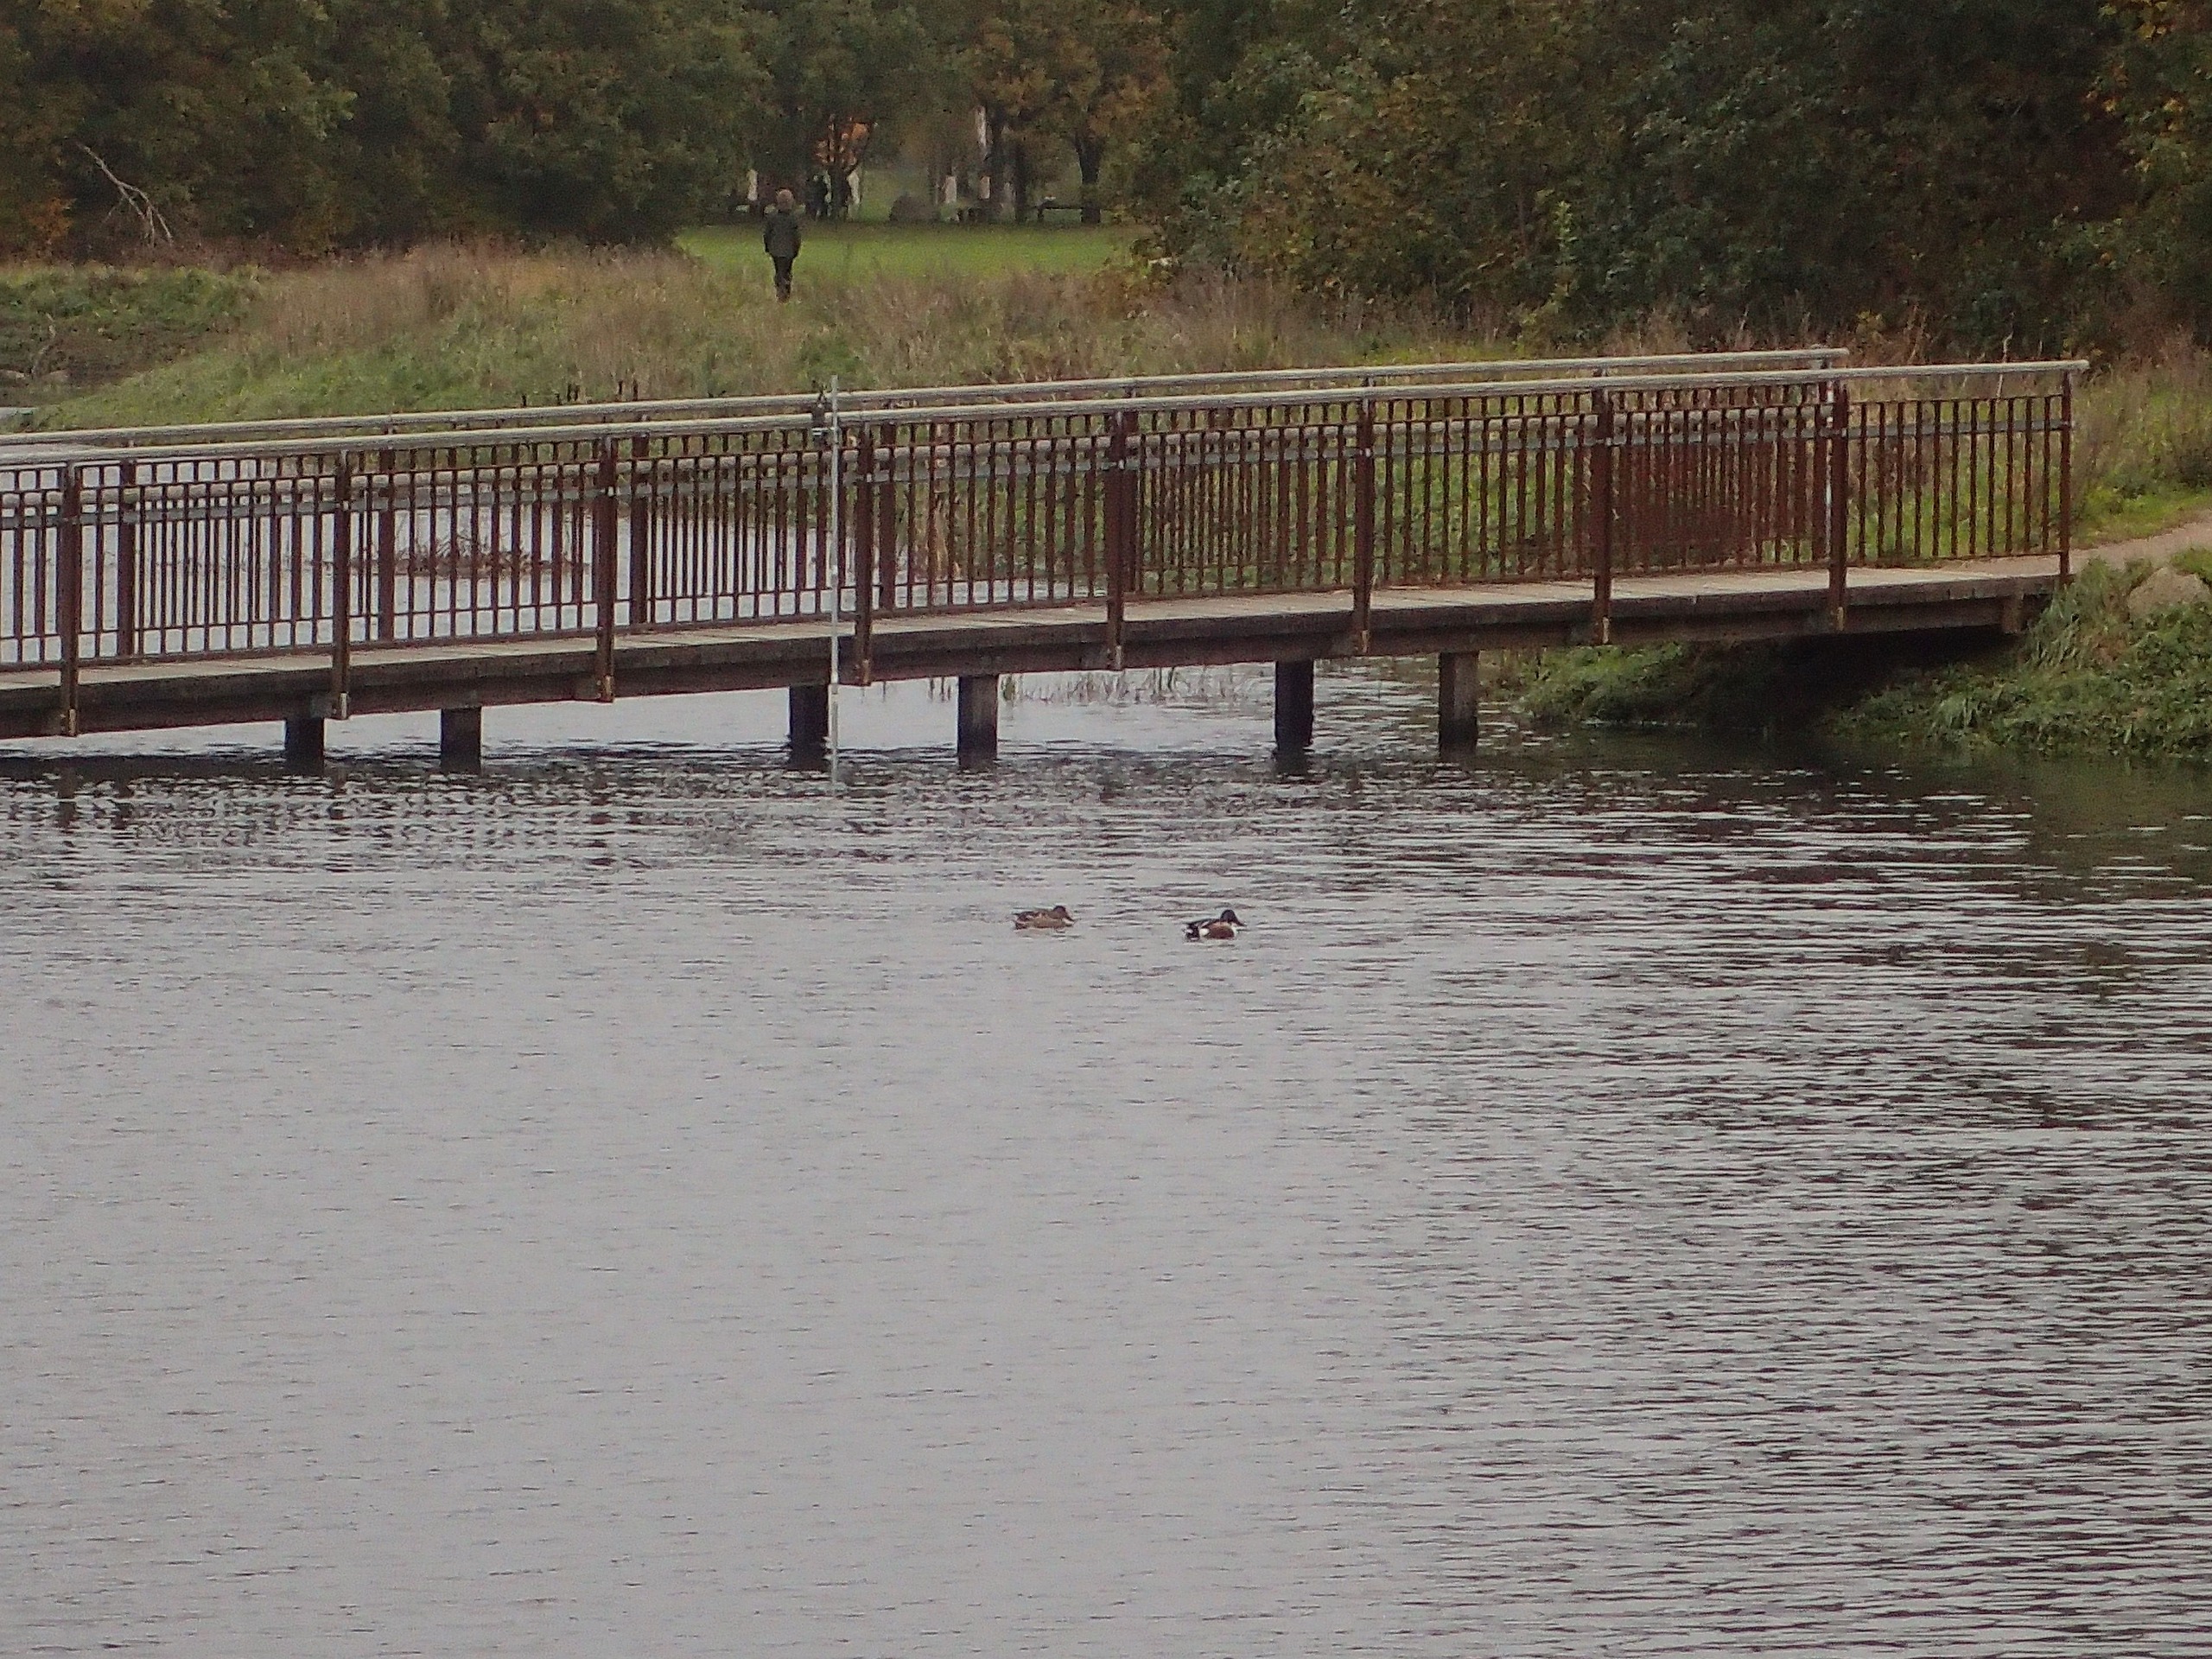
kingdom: Animalia
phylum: Chordata
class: Aves
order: Anseriformes
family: Anatidae
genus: Spatula
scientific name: Spatula clypeata
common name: Skeand
